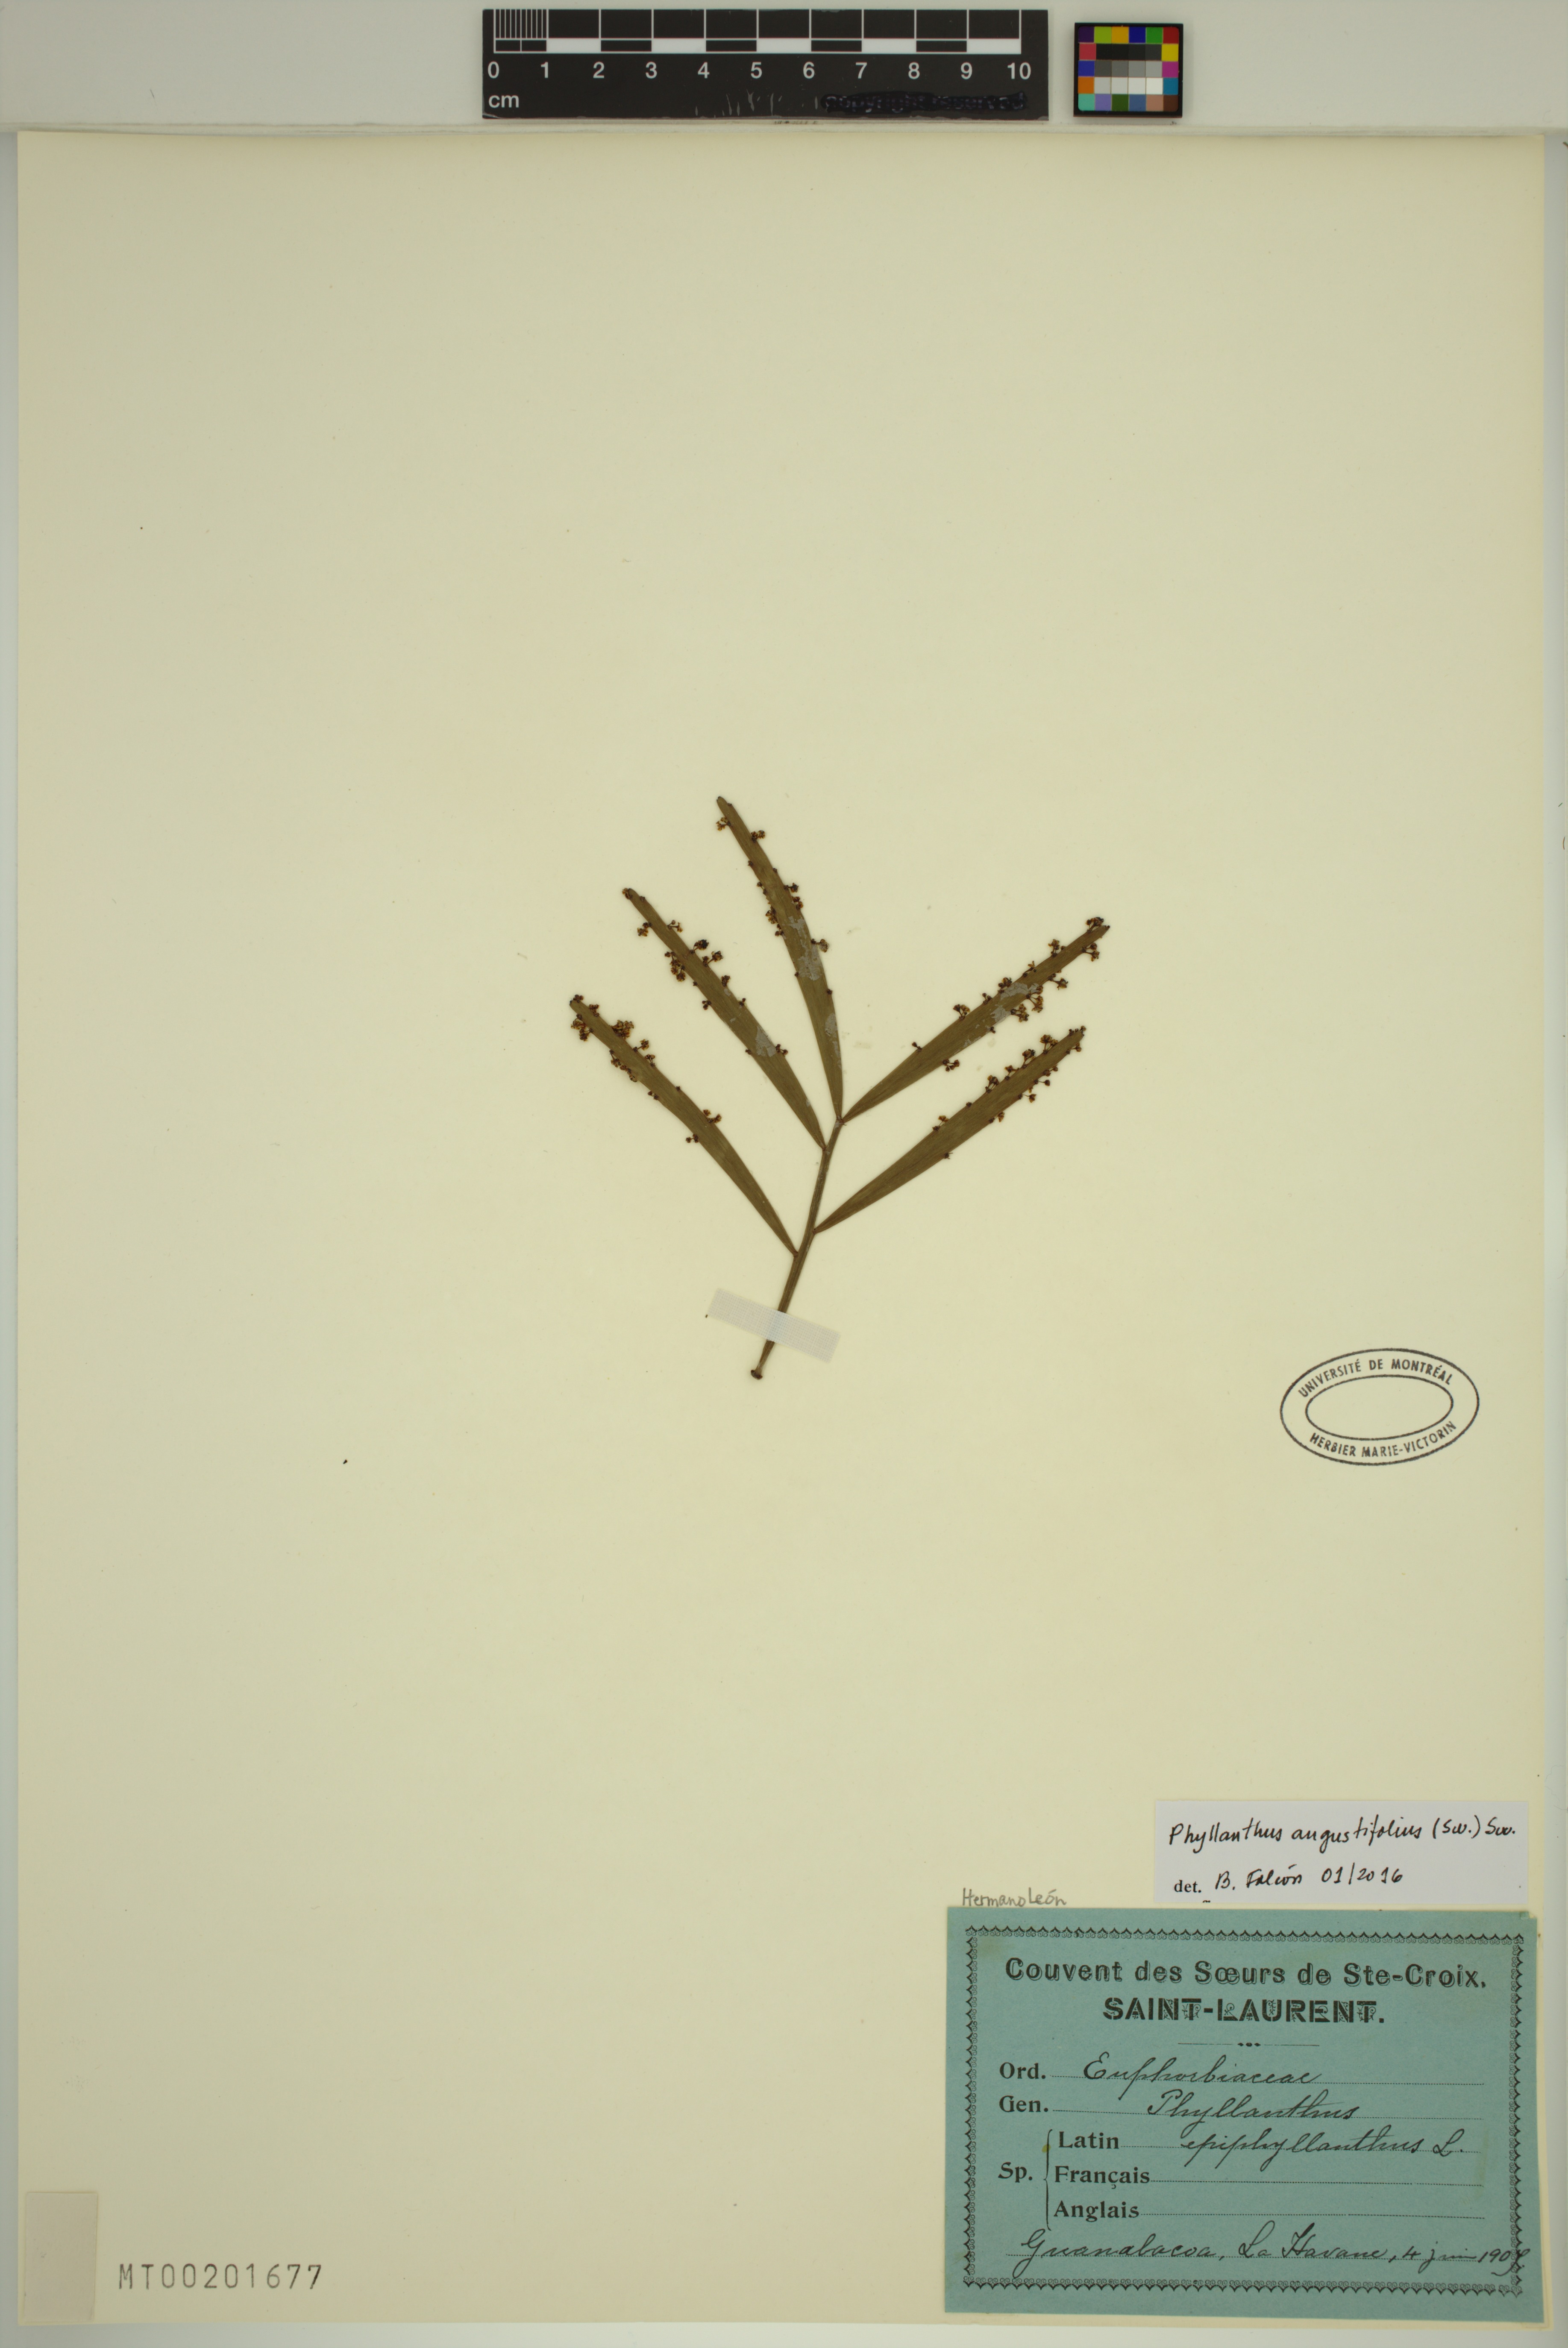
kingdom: Plantae
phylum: Tracheophyta
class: Magnoliopsida
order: Malpighiales
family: Phyllanthaceae
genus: Phyllanthus
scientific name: Phyllanthus angustifolius
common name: Foliage flower
